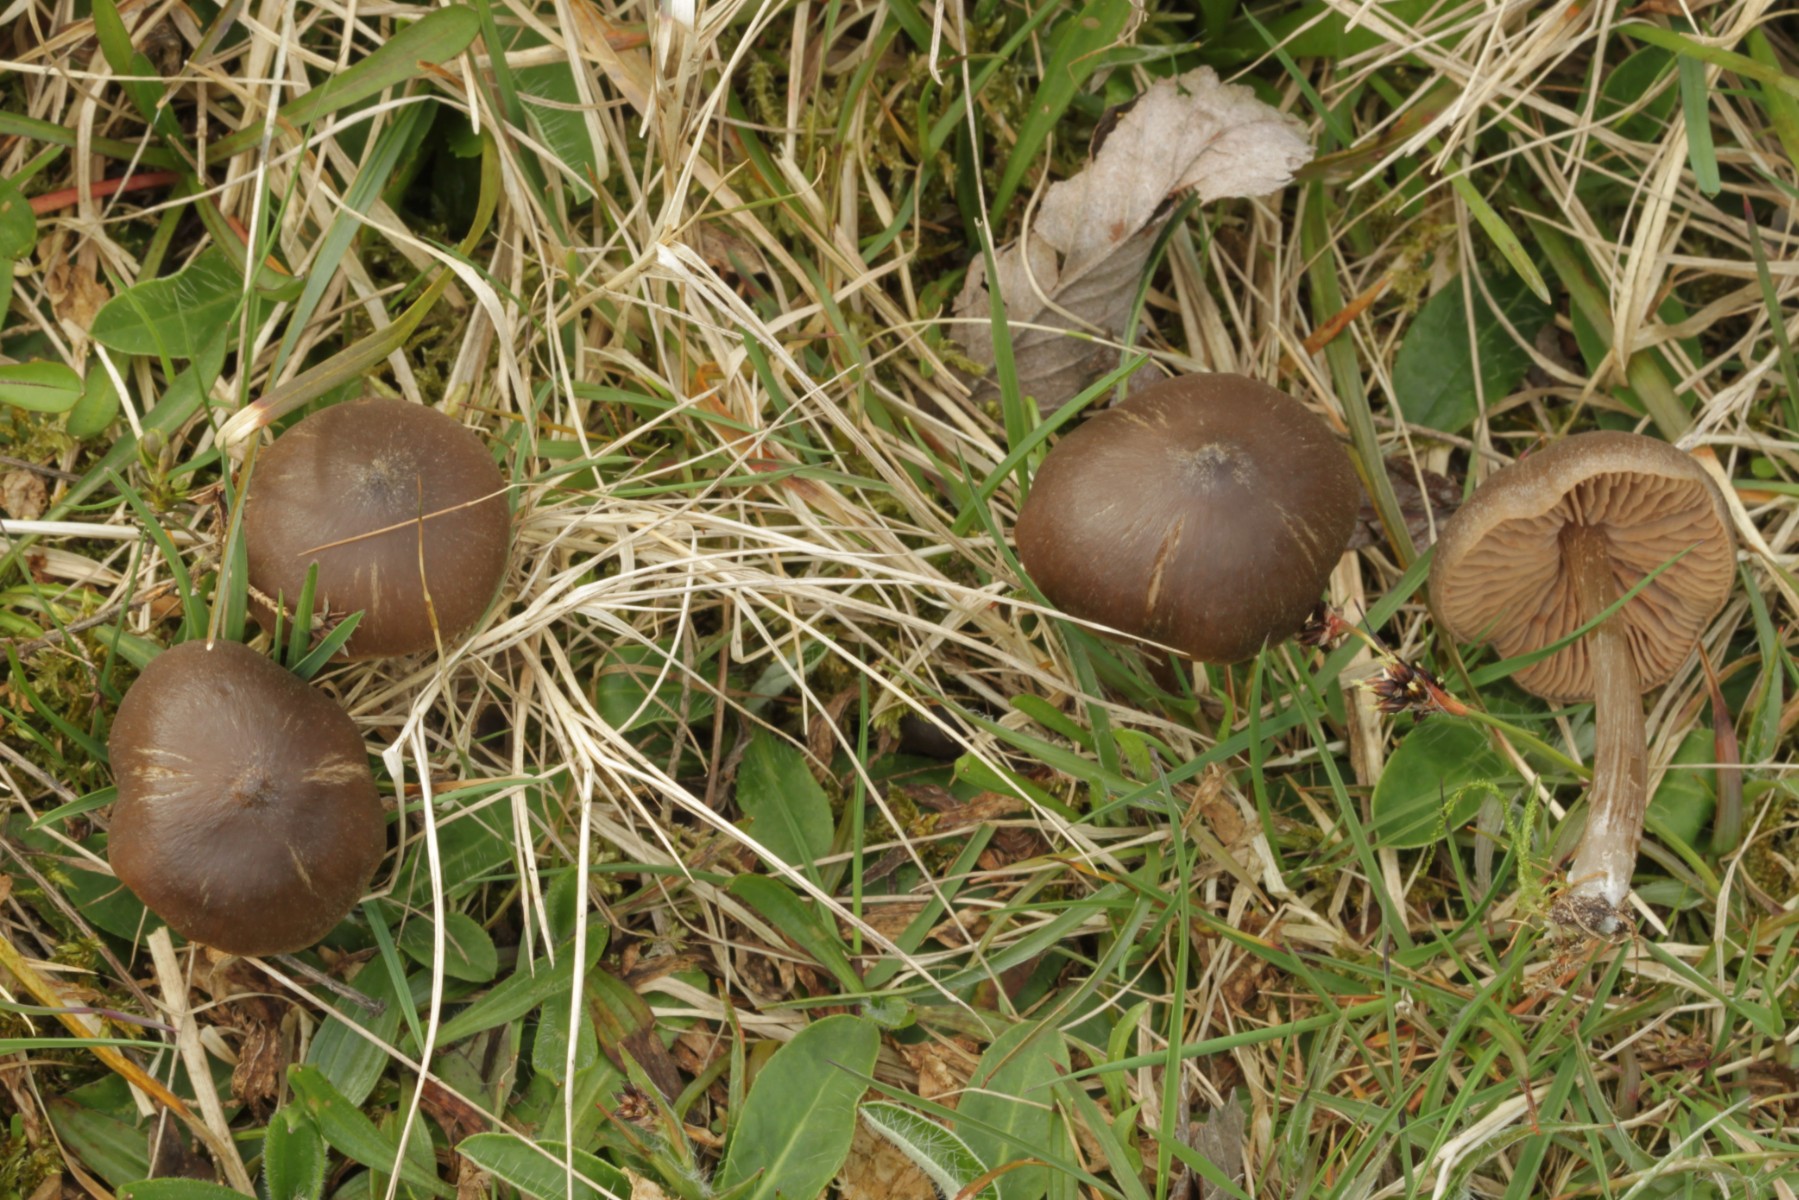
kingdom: Fungi
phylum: Basidiomycota
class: Agaricomycetes
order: Agaricales
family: Entolomataceae
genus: Entoloma
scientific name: Entoloma vernum
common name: vår-rødblad
